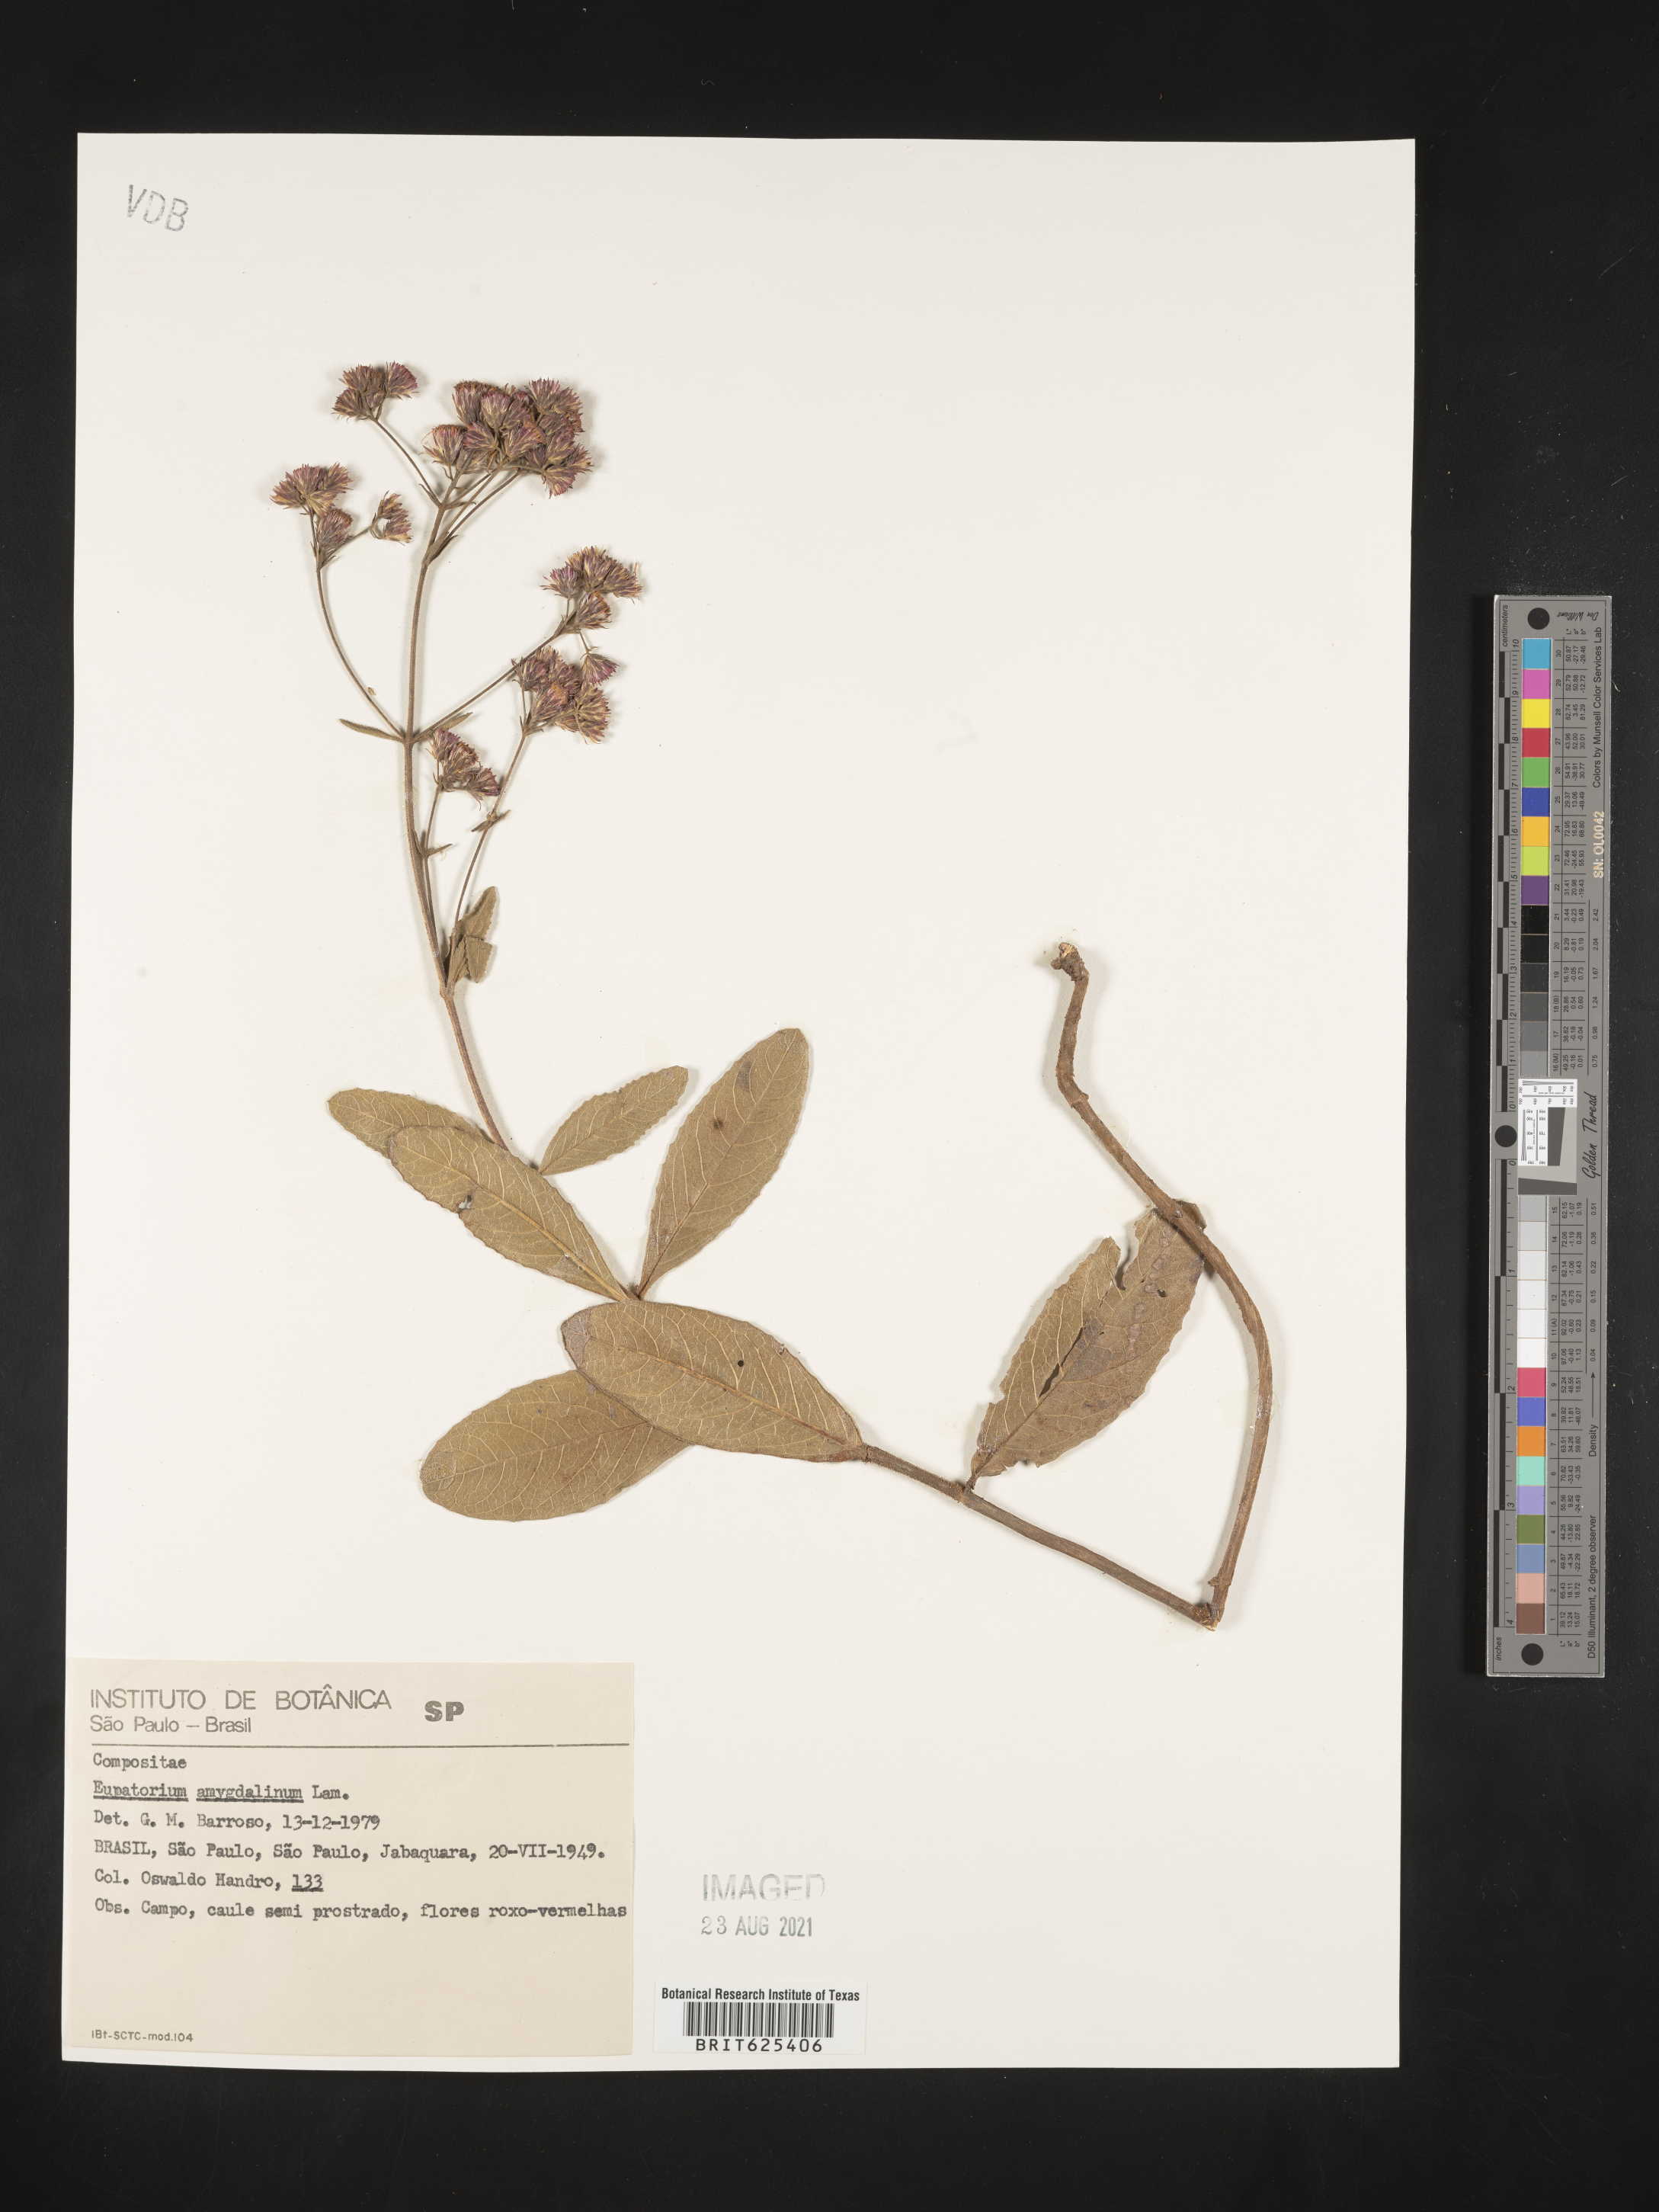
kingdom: Plantae
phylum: Tracheophyta
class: Magnoliopsida
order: Asterales
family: Asteraceae
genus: Ayapana
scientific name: Ayapana amygdalina
